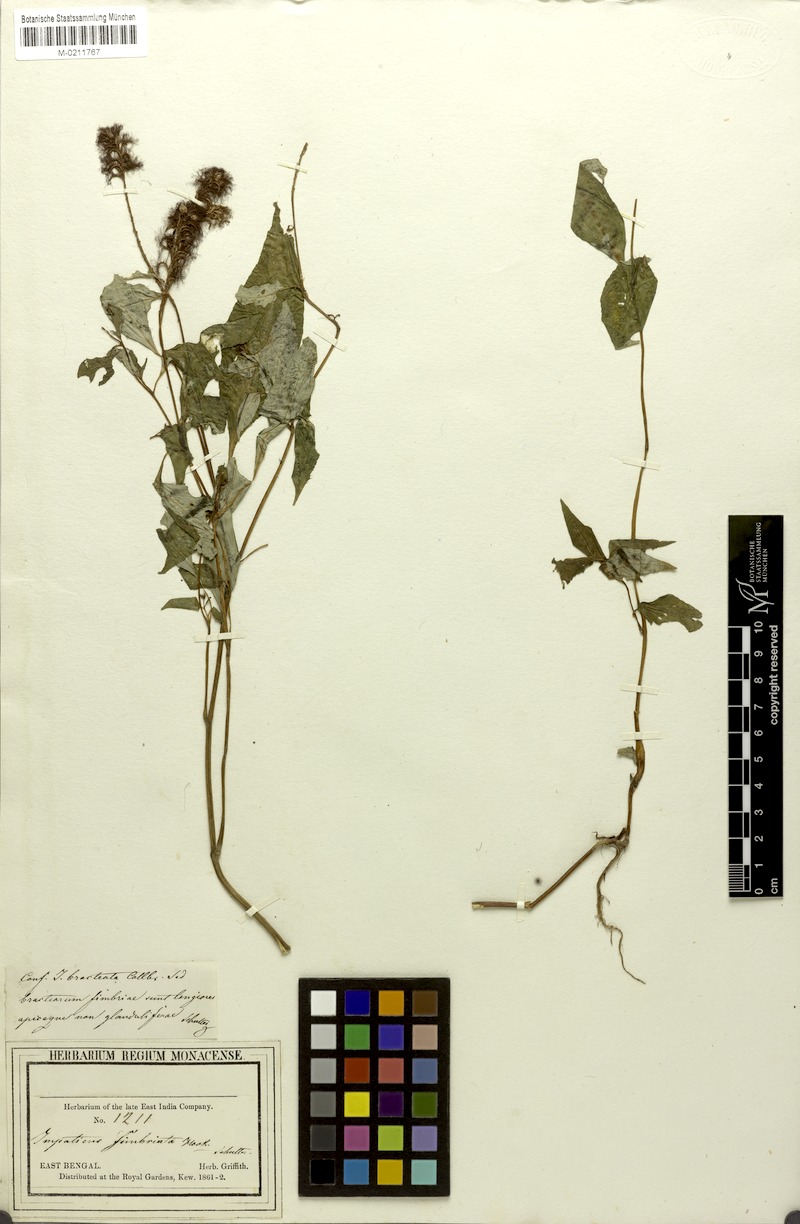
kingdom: Plantae
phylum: Tracheophyta
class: Magnoliopsida
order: Ericales
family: Balsaminaceae
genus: Impatiens
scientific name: Impatiens bracteata
